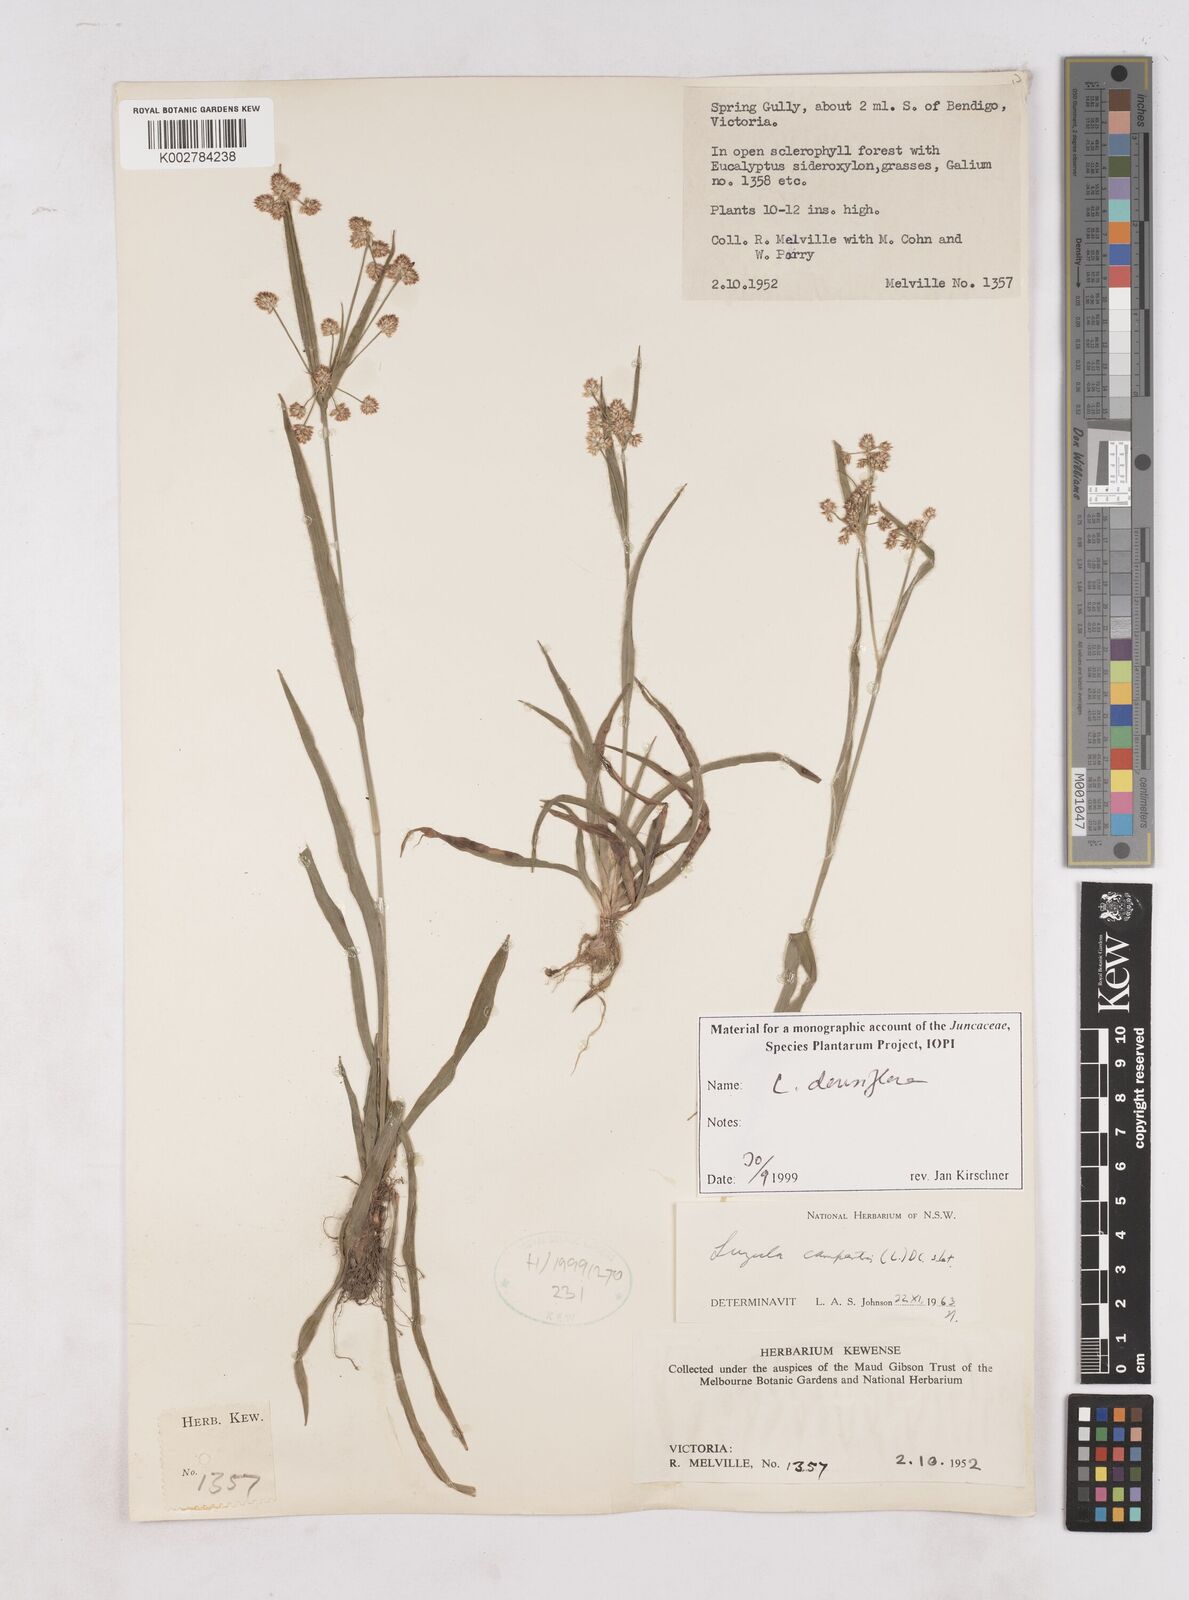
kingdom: Plantae
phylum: Tracheophyta
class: Liliopsida
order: Poales
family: Juncaceae
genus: Luzula
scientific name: Luzula densiflora
